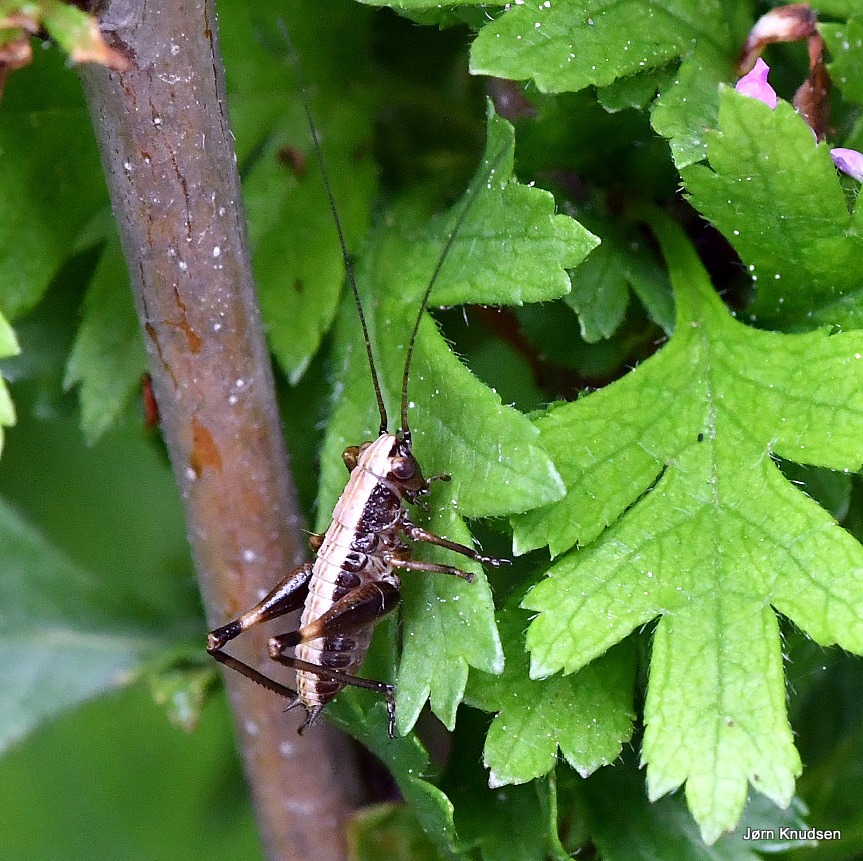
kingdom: Animalia
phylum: Arthropoda
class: Insecta
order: Orthoptera
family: Tettigoniidae
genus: Pholidoptera
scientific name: Pholidoptera griseoaptera
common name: Buskgræshoppe
